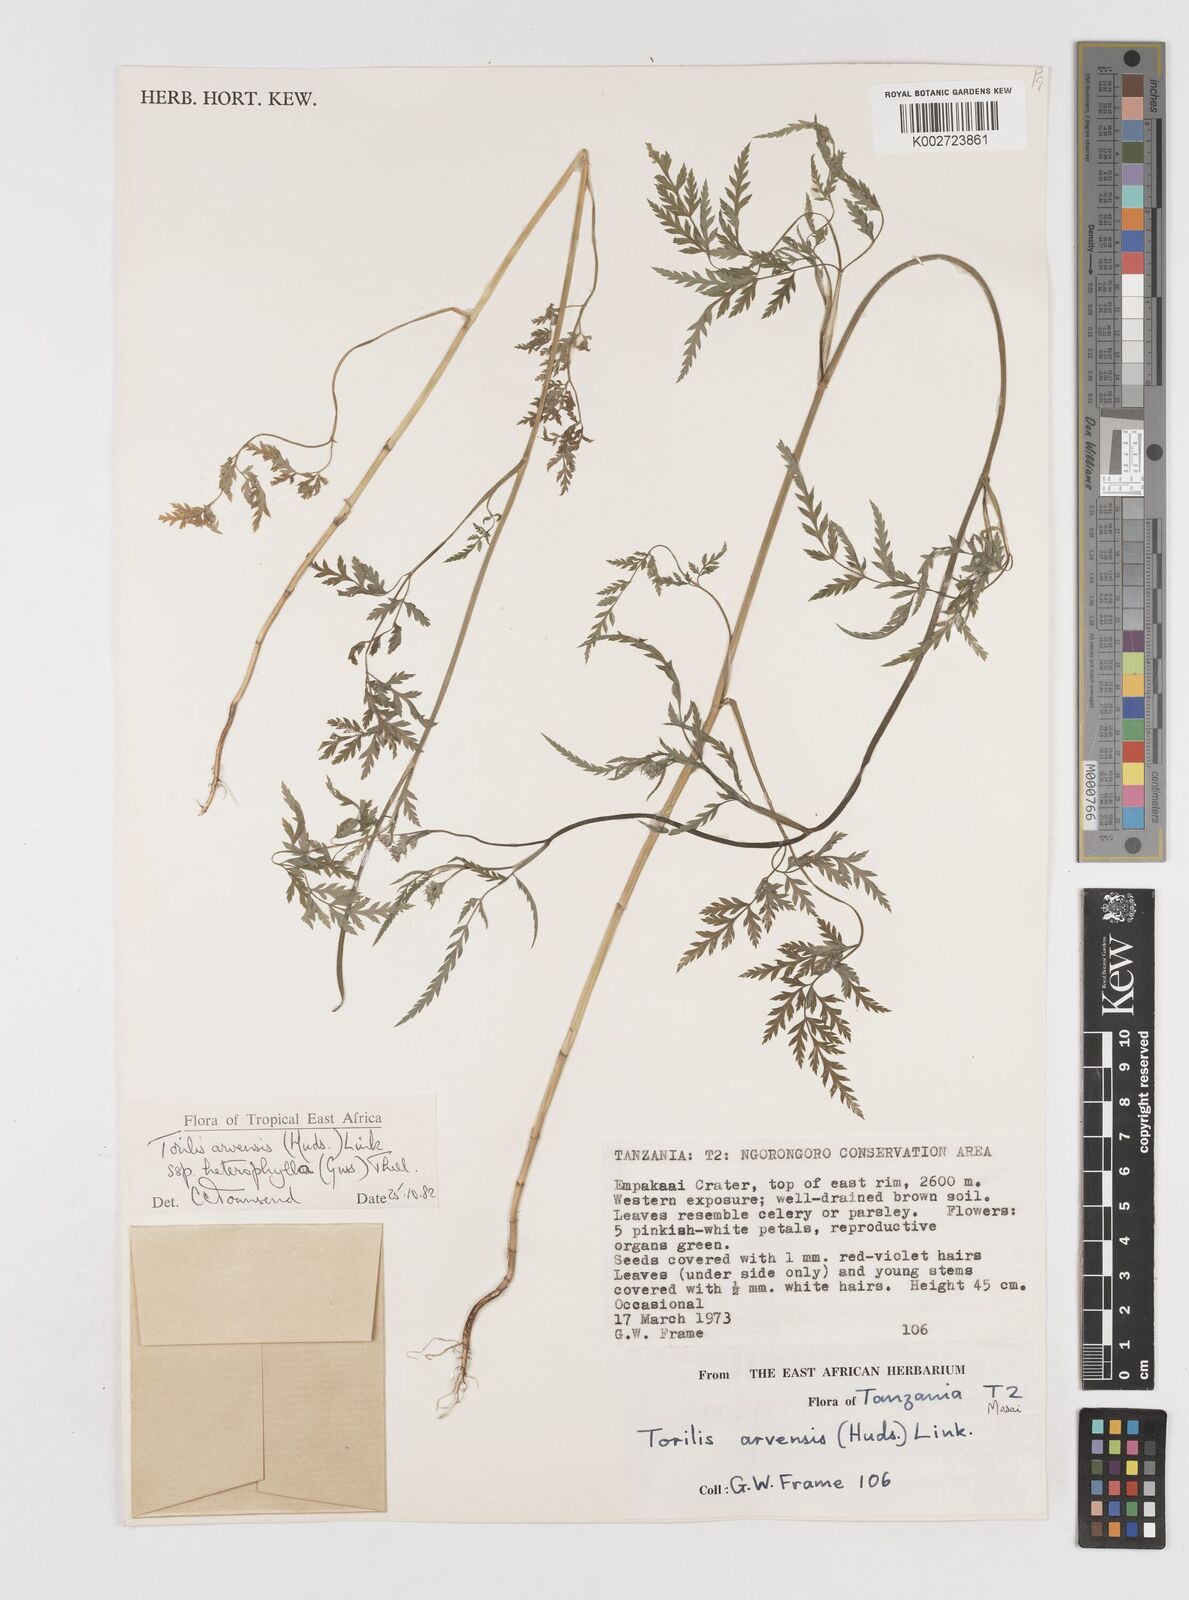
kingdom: Plantae
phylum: Tracheophyta
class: Magnoliopsida
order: Apiales
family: Apiaceae
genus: Torilis
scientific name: Torilis arvensis
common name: Spreading hedge-parsley
